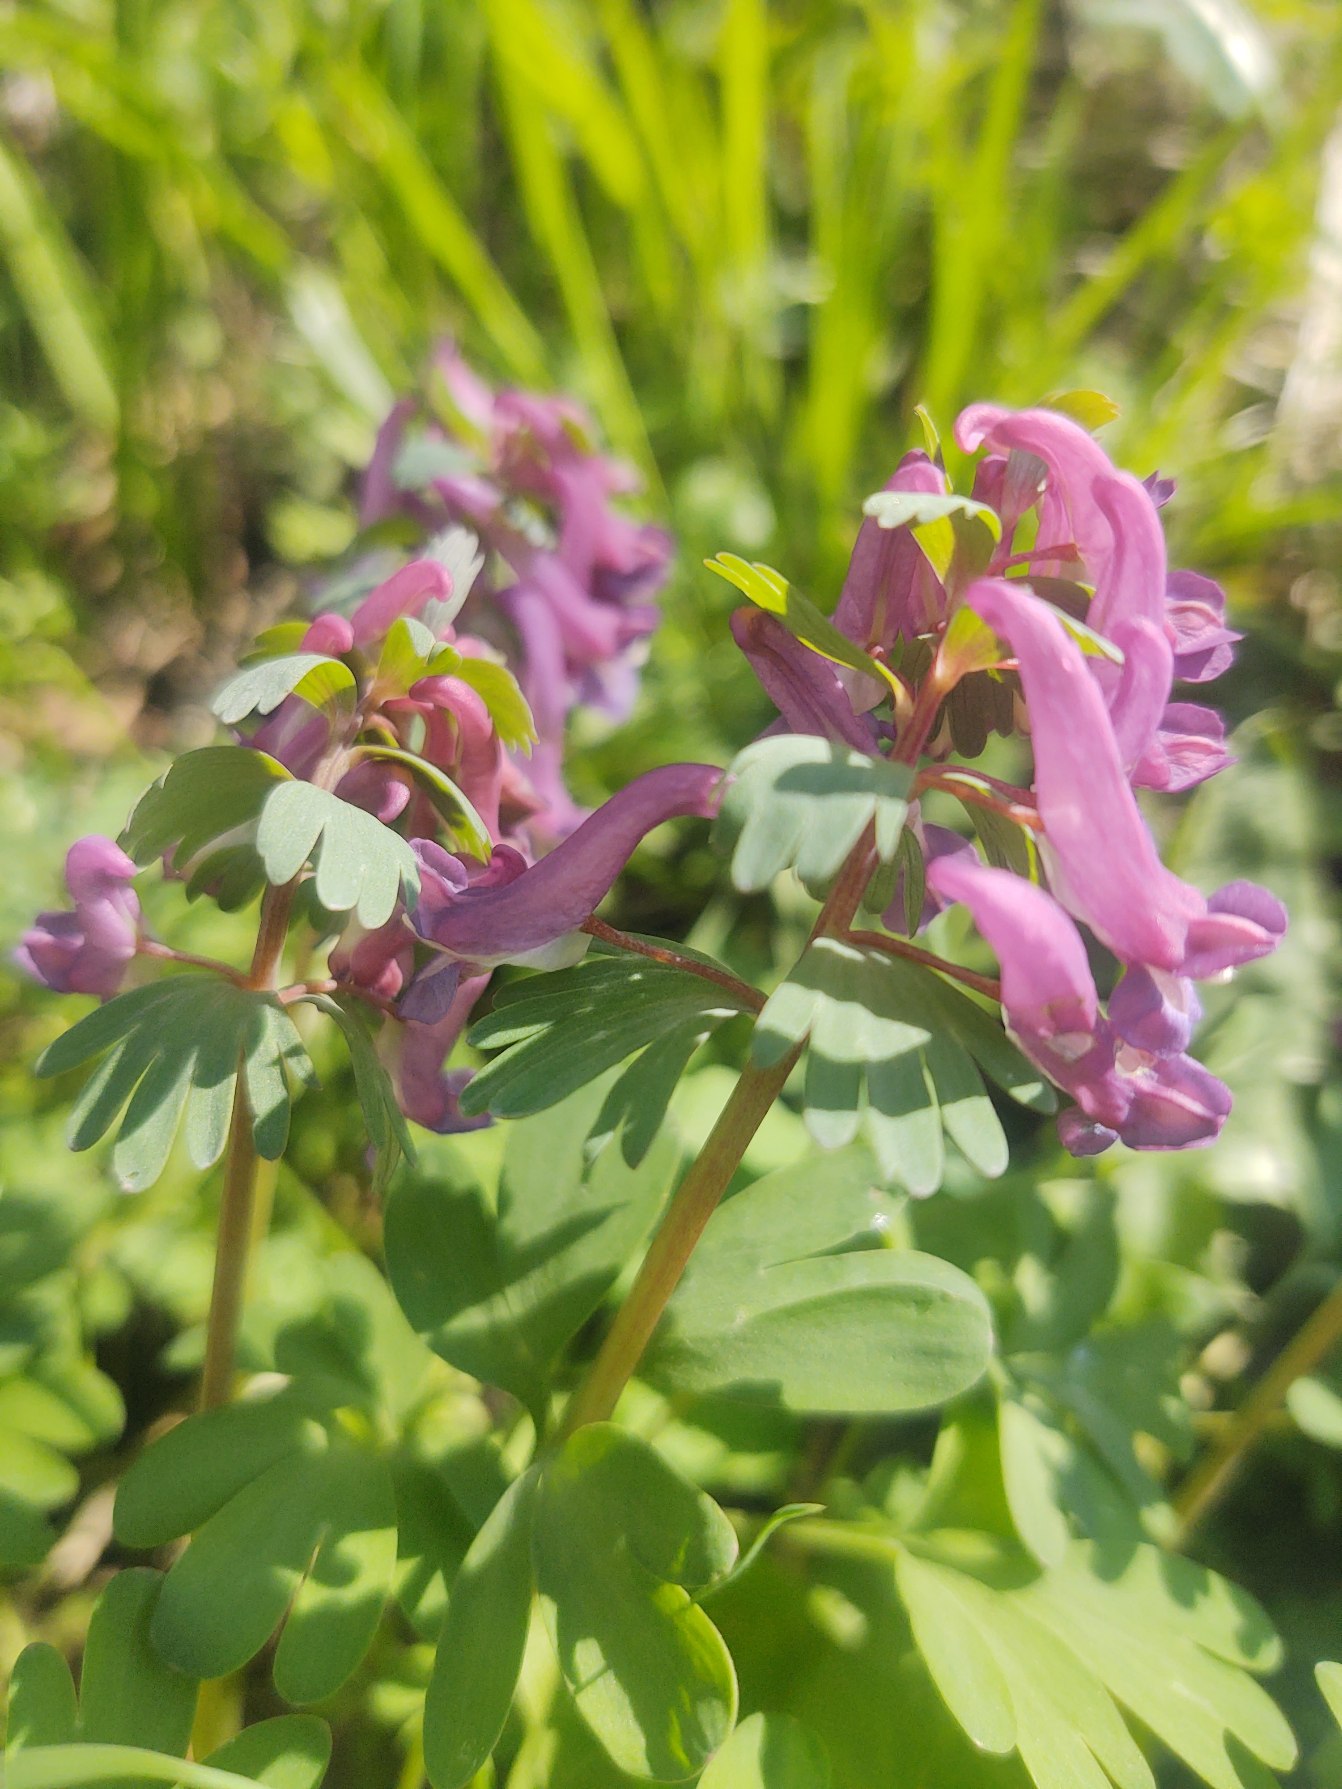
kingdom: Plantae
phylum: Tracheophyta
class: Magnoliopsida
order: Ranunculales
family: Papaveraceae
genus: Corydalis
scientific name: Corydalis solida
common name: Langstilket lærkespore
